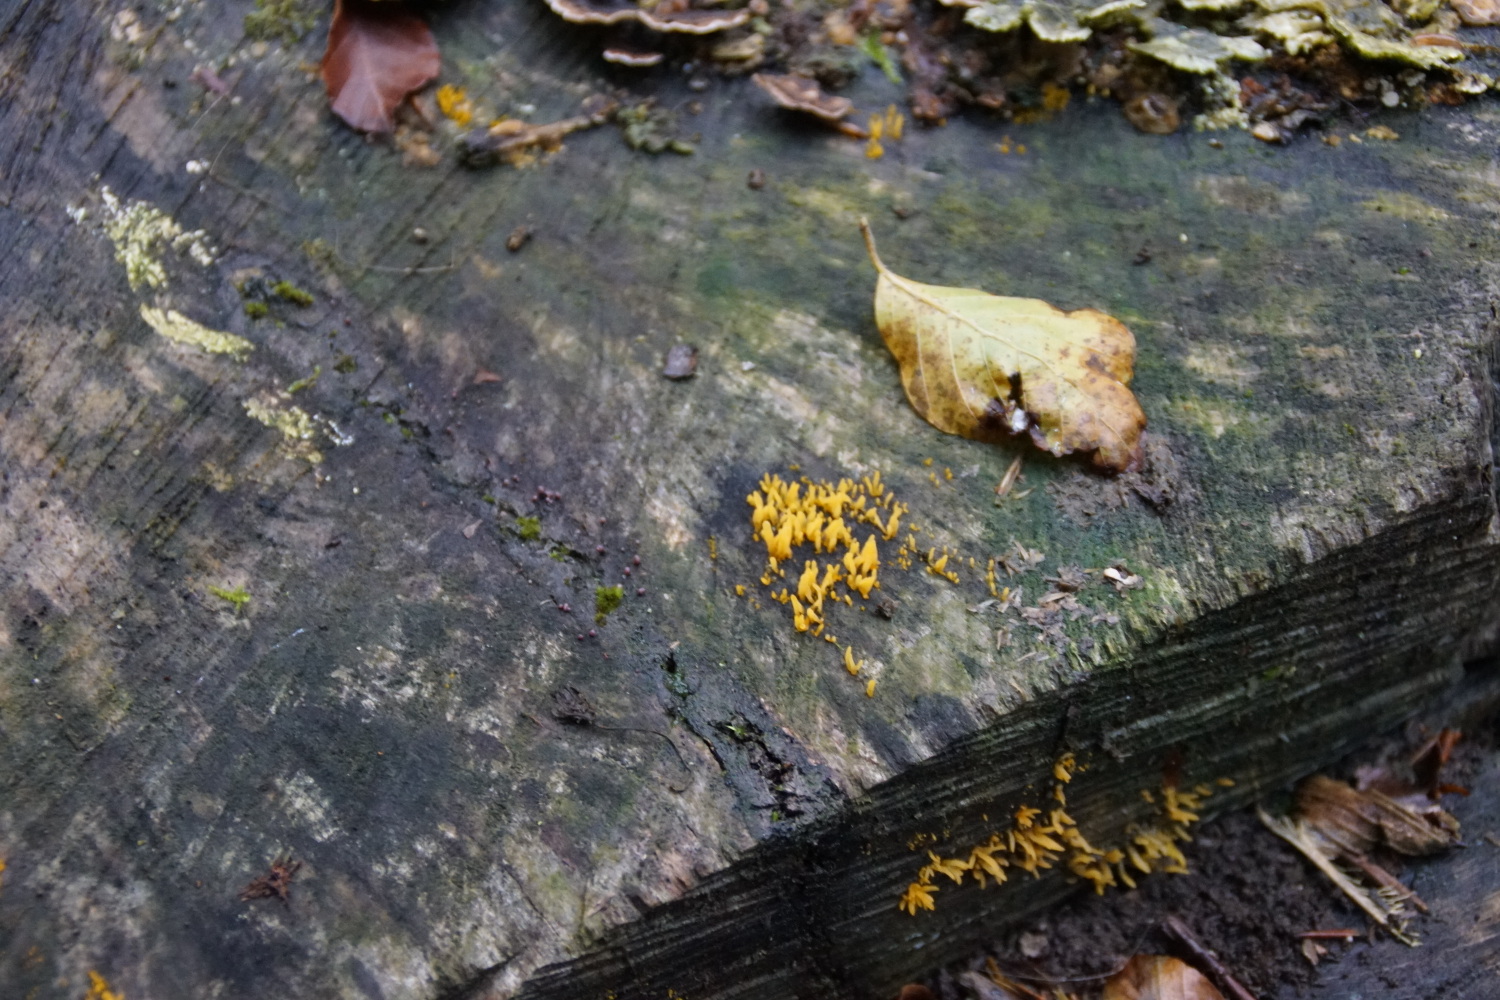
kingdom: Fungi
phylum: Basidiomycota
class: Dacrymycetes
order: Dacrymycetales
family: Dacrymycetaceae
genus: Calocera
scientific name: Calocera cornea
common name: liden guldgaffel
